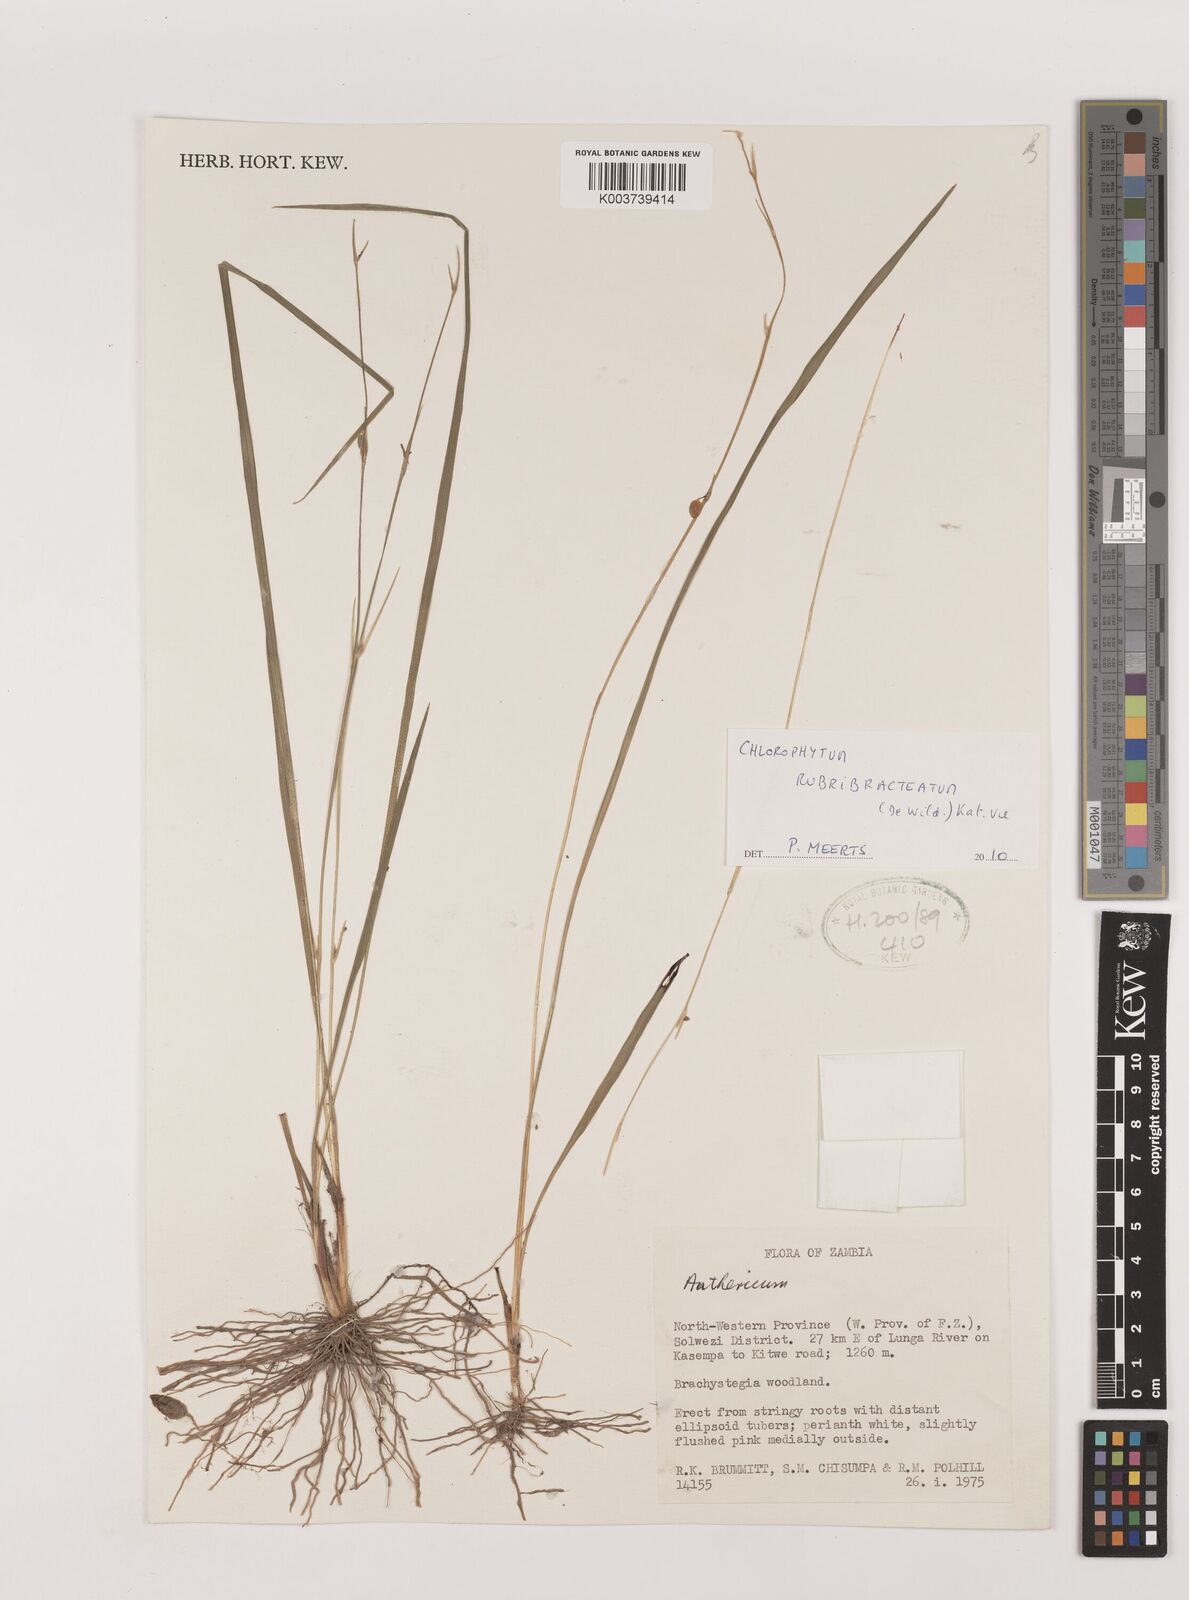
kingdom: Plantae
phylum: Tracheophyta
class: Liliopsida
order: Asparagales
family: Asparagaceae
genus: Chlorophytum
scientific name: Chlorophytum rubribracteatum
